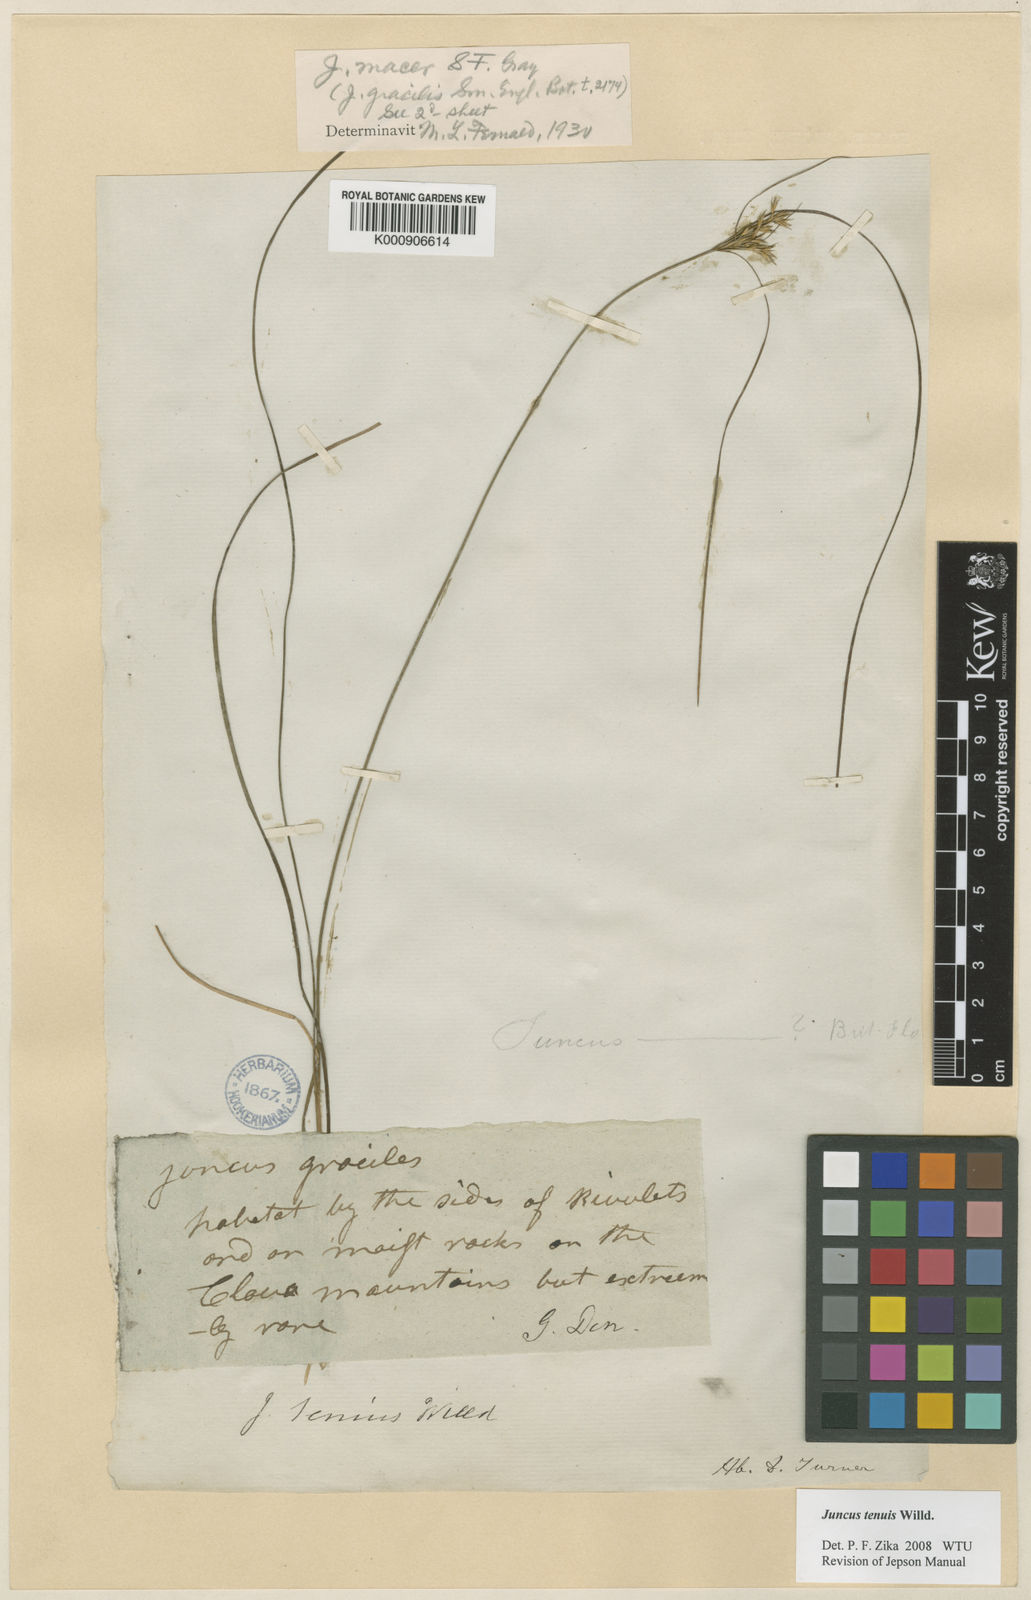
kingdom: Plantae
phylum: Tracheophyta
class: Liliopsida
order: Poales
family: Juncaceae
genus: Juncus
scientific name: Juncus tenuis
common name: Slender rush
